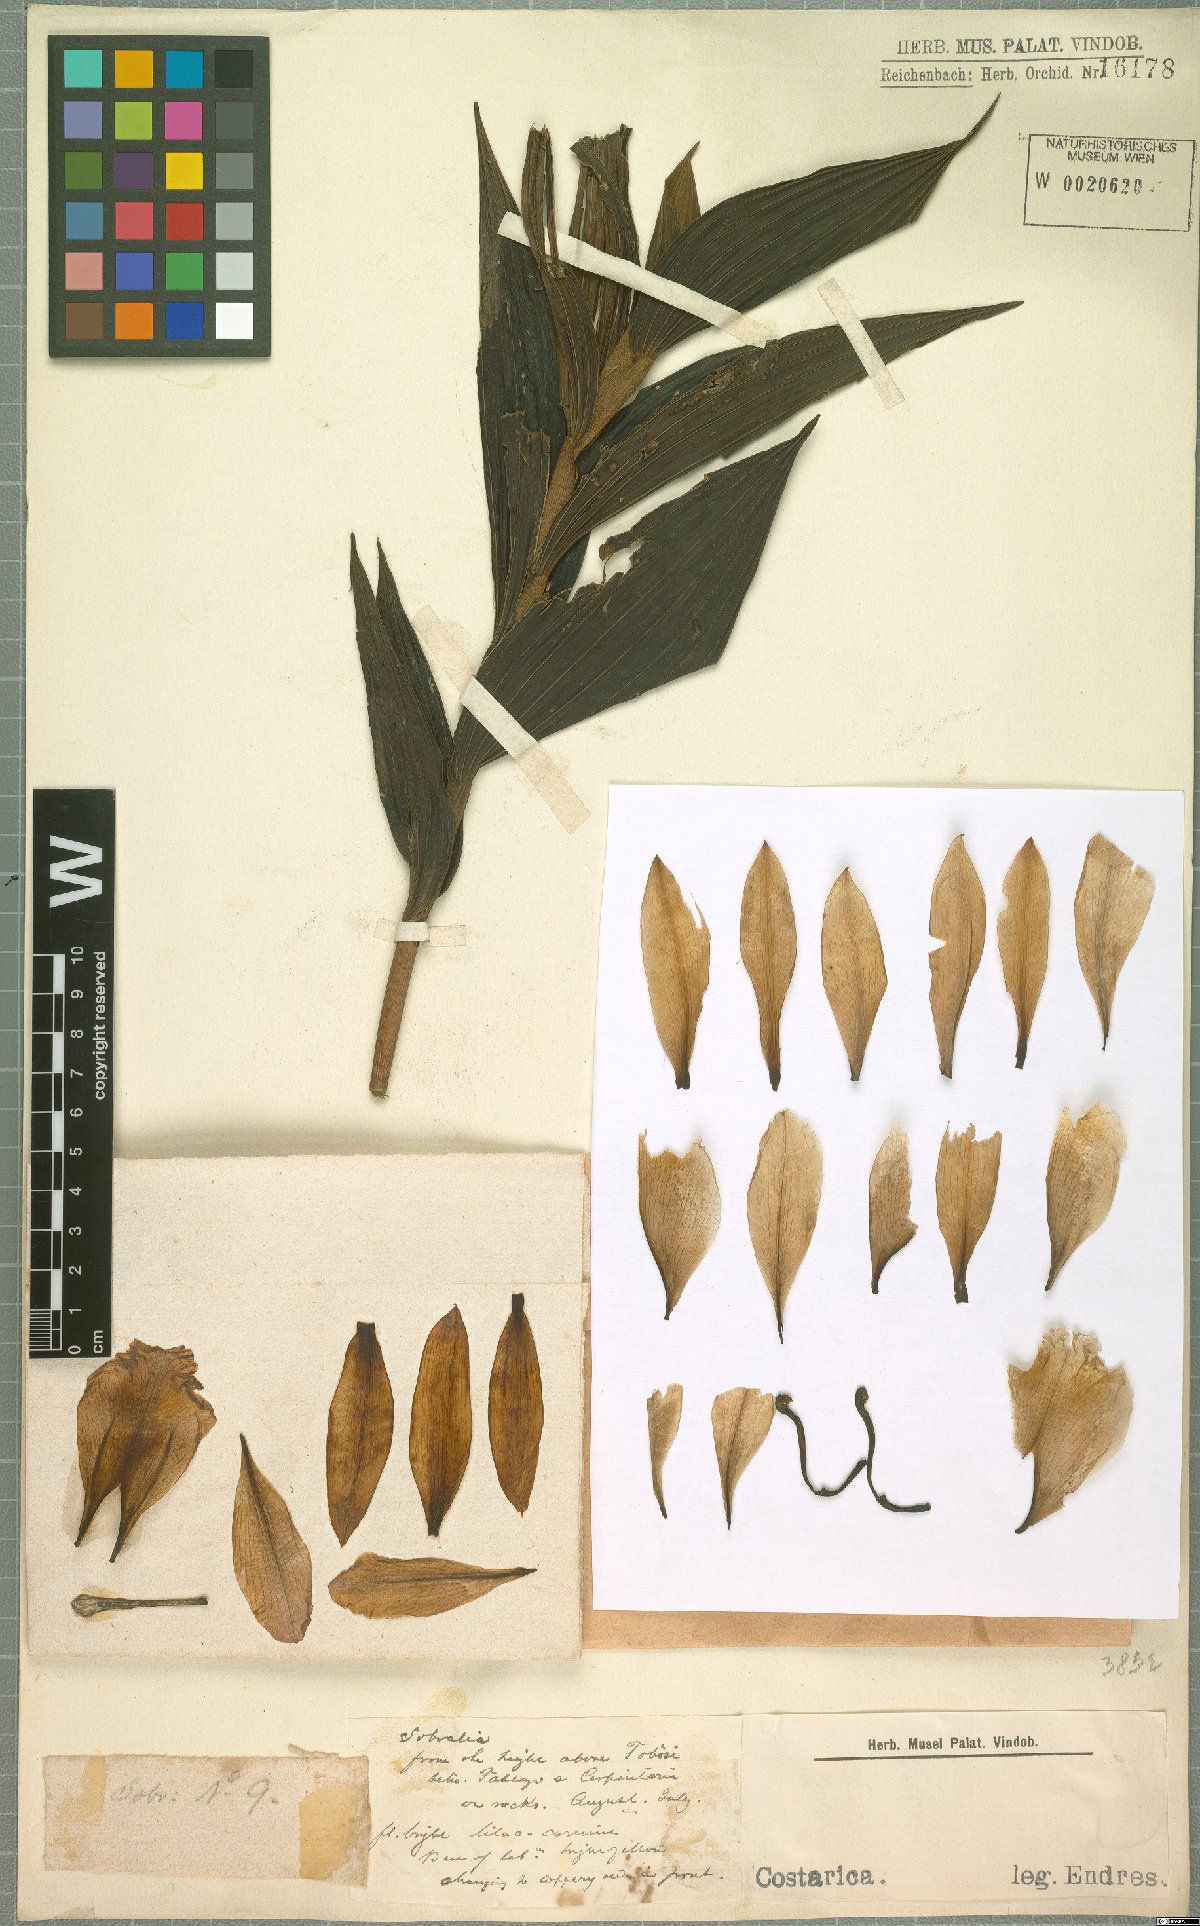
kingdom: Plantae
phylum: Tracheophyta
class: Liliopsida
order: Asparagales
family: Orchidaceae
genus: Sobralia
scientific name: Sobralia
